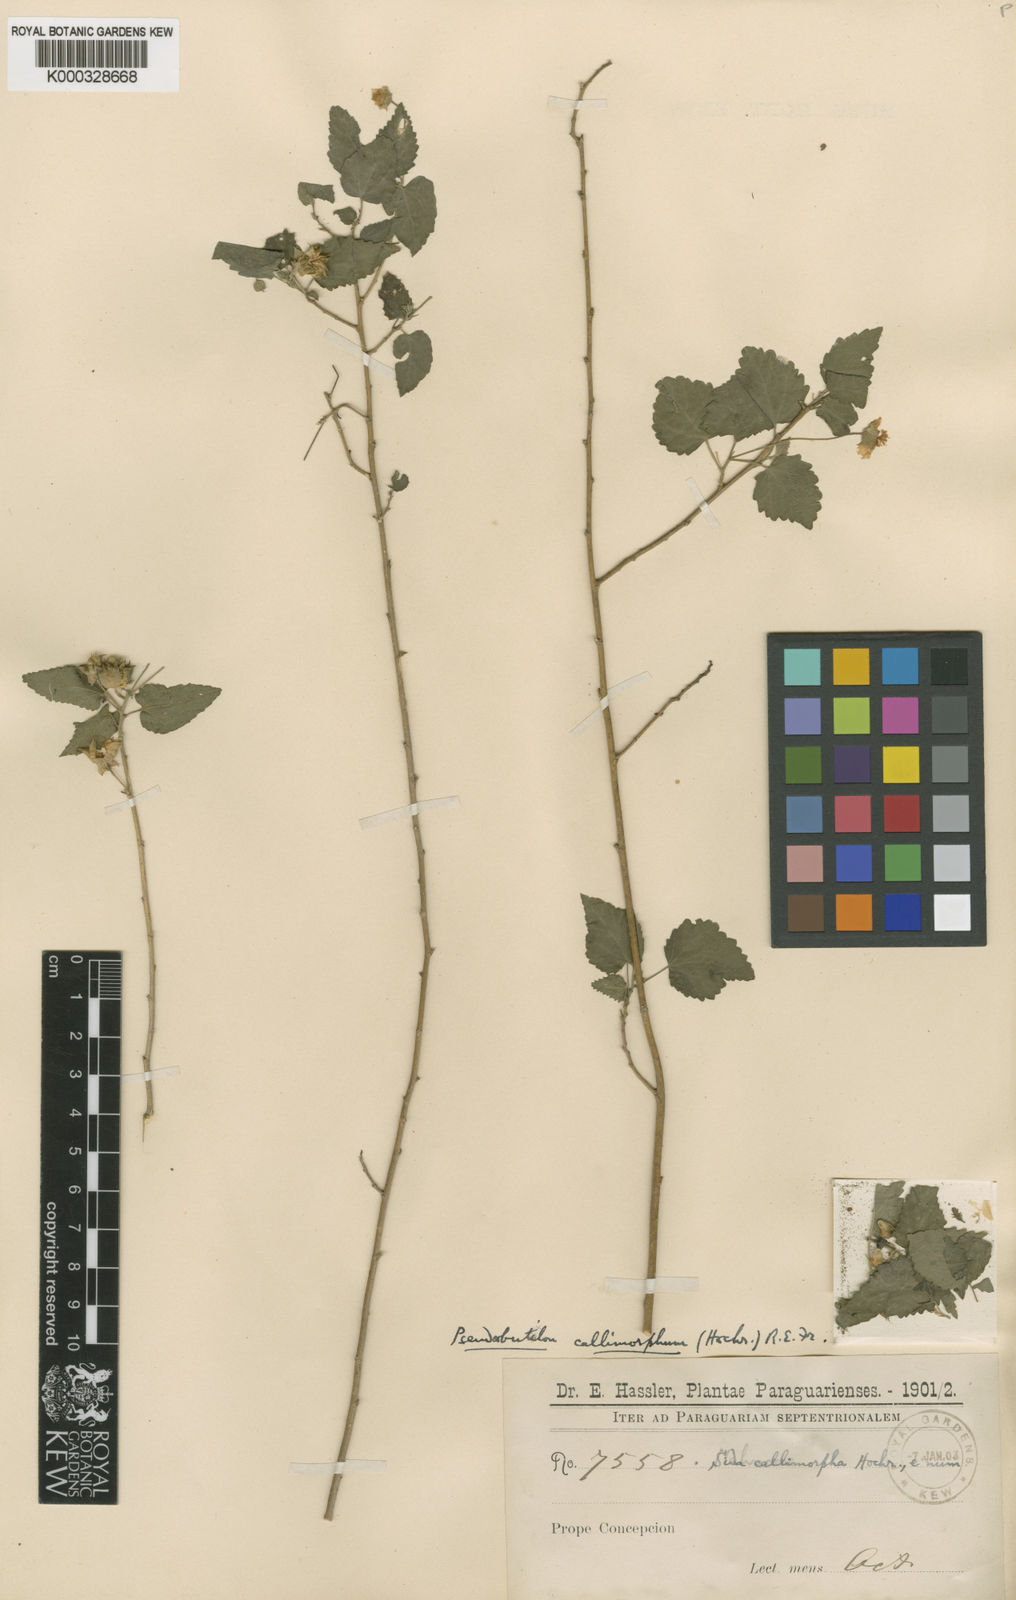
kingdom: Plantae
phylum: Tracheophyta
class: Magnoliopsida
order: Malvales
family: Malvaceae
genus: Pseudabutilon
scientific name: Pseudabutilon callimorphum
